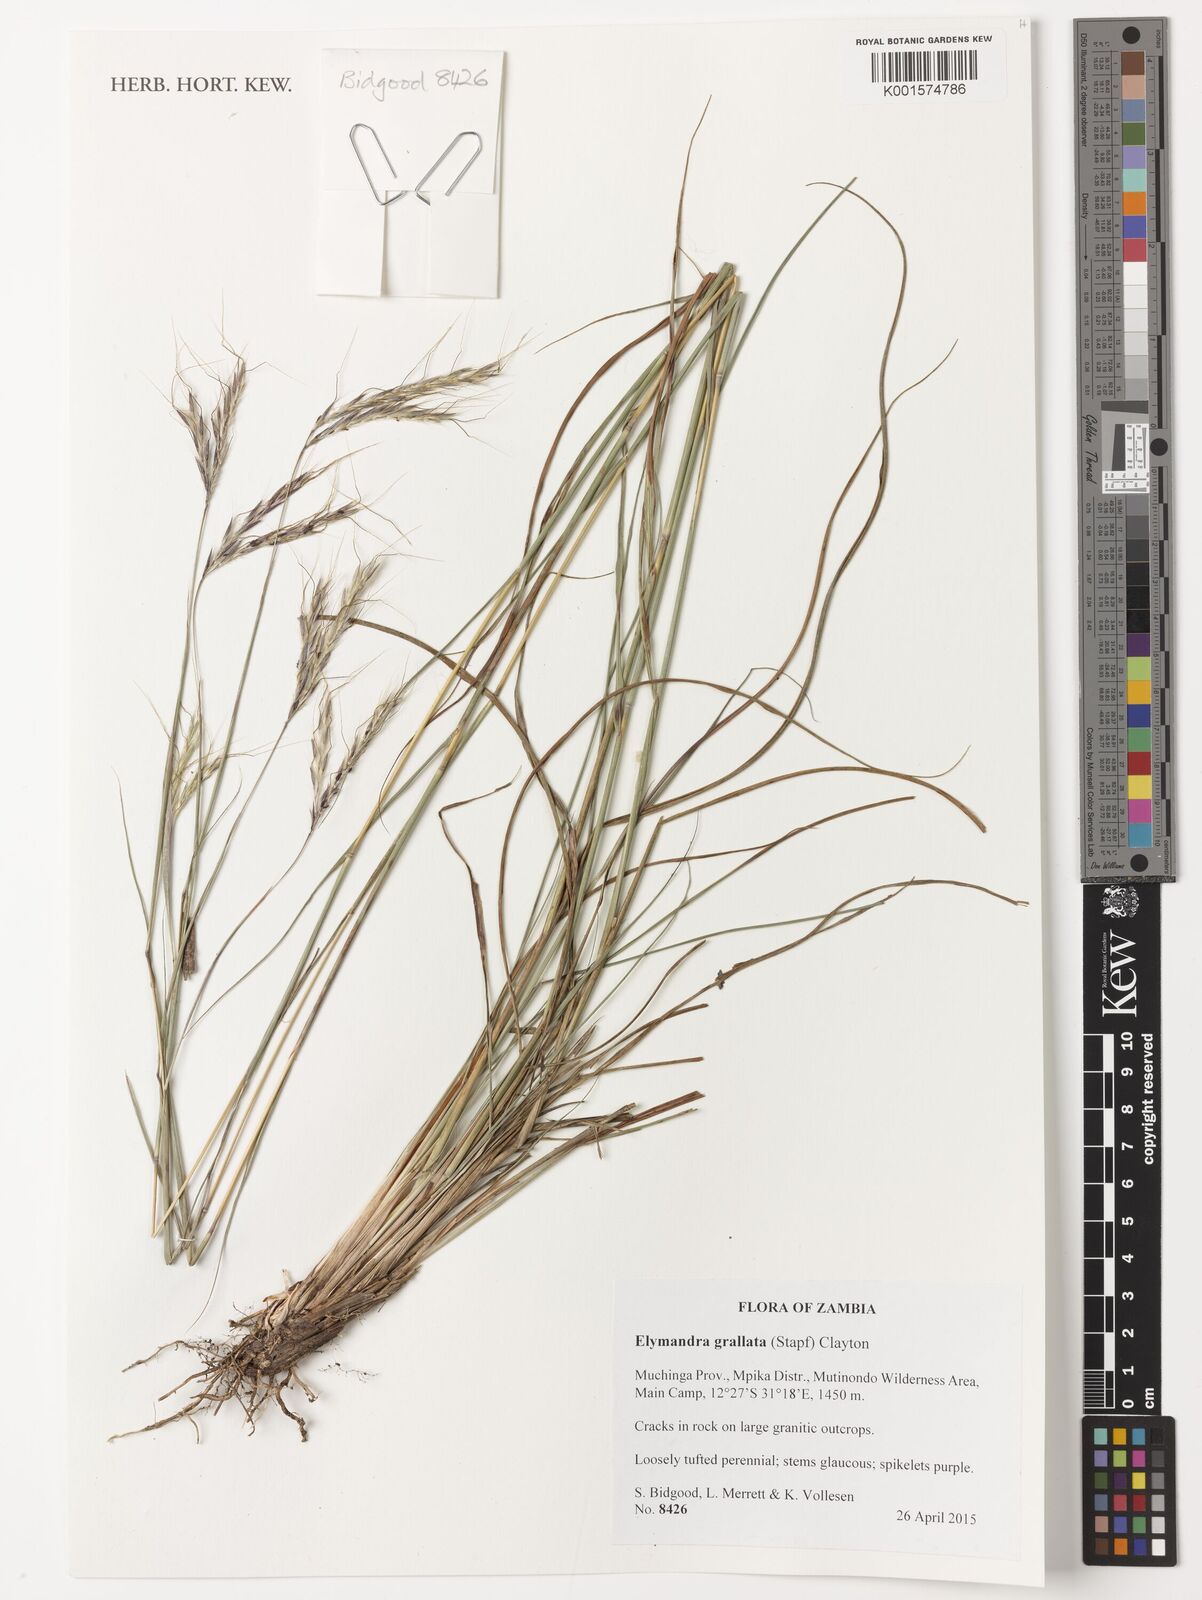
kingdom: Plantae
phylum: Tracheophyta
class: Liliopsida
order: Poales
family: Poaceae
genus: Elymandra
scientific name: Elymandra grallata
